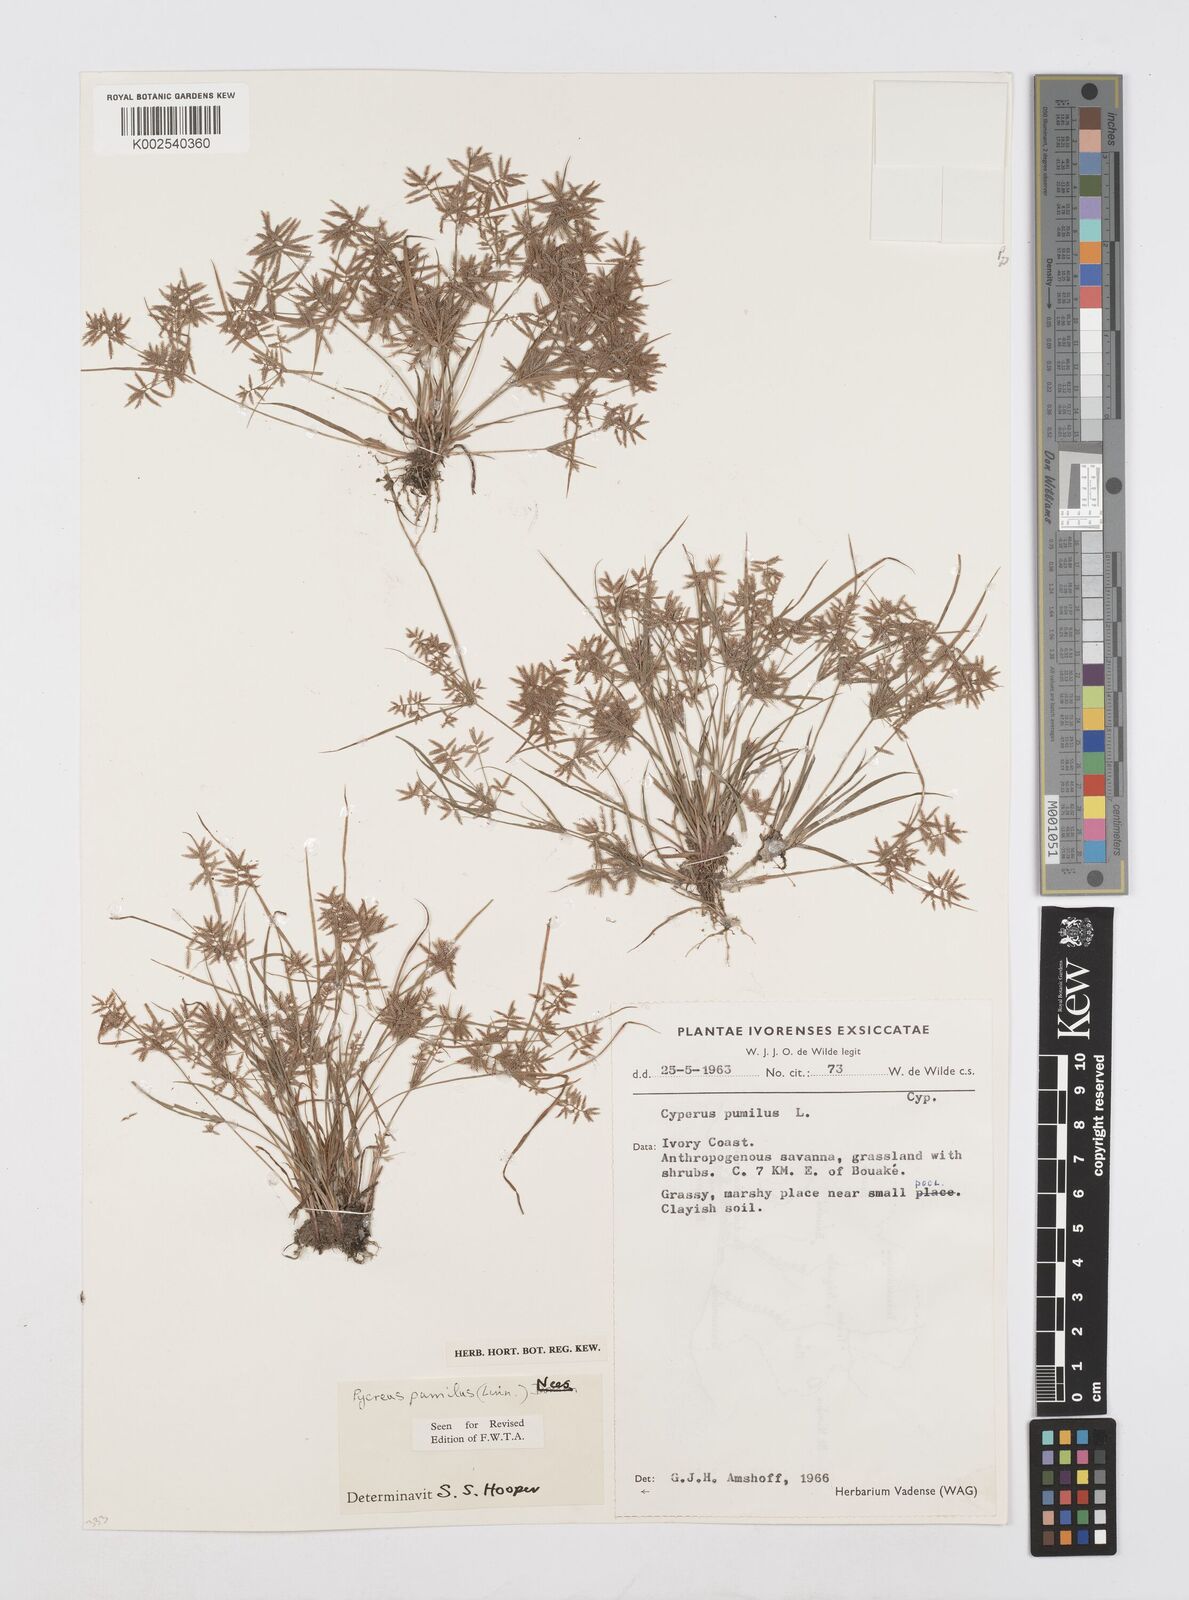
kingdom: Plantae
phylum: Tracheophyta
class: Liliopsida
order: Poales
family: Cyperaceae
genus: Cyperus
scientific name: Cyperus pumilus
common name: Low flatsedge
